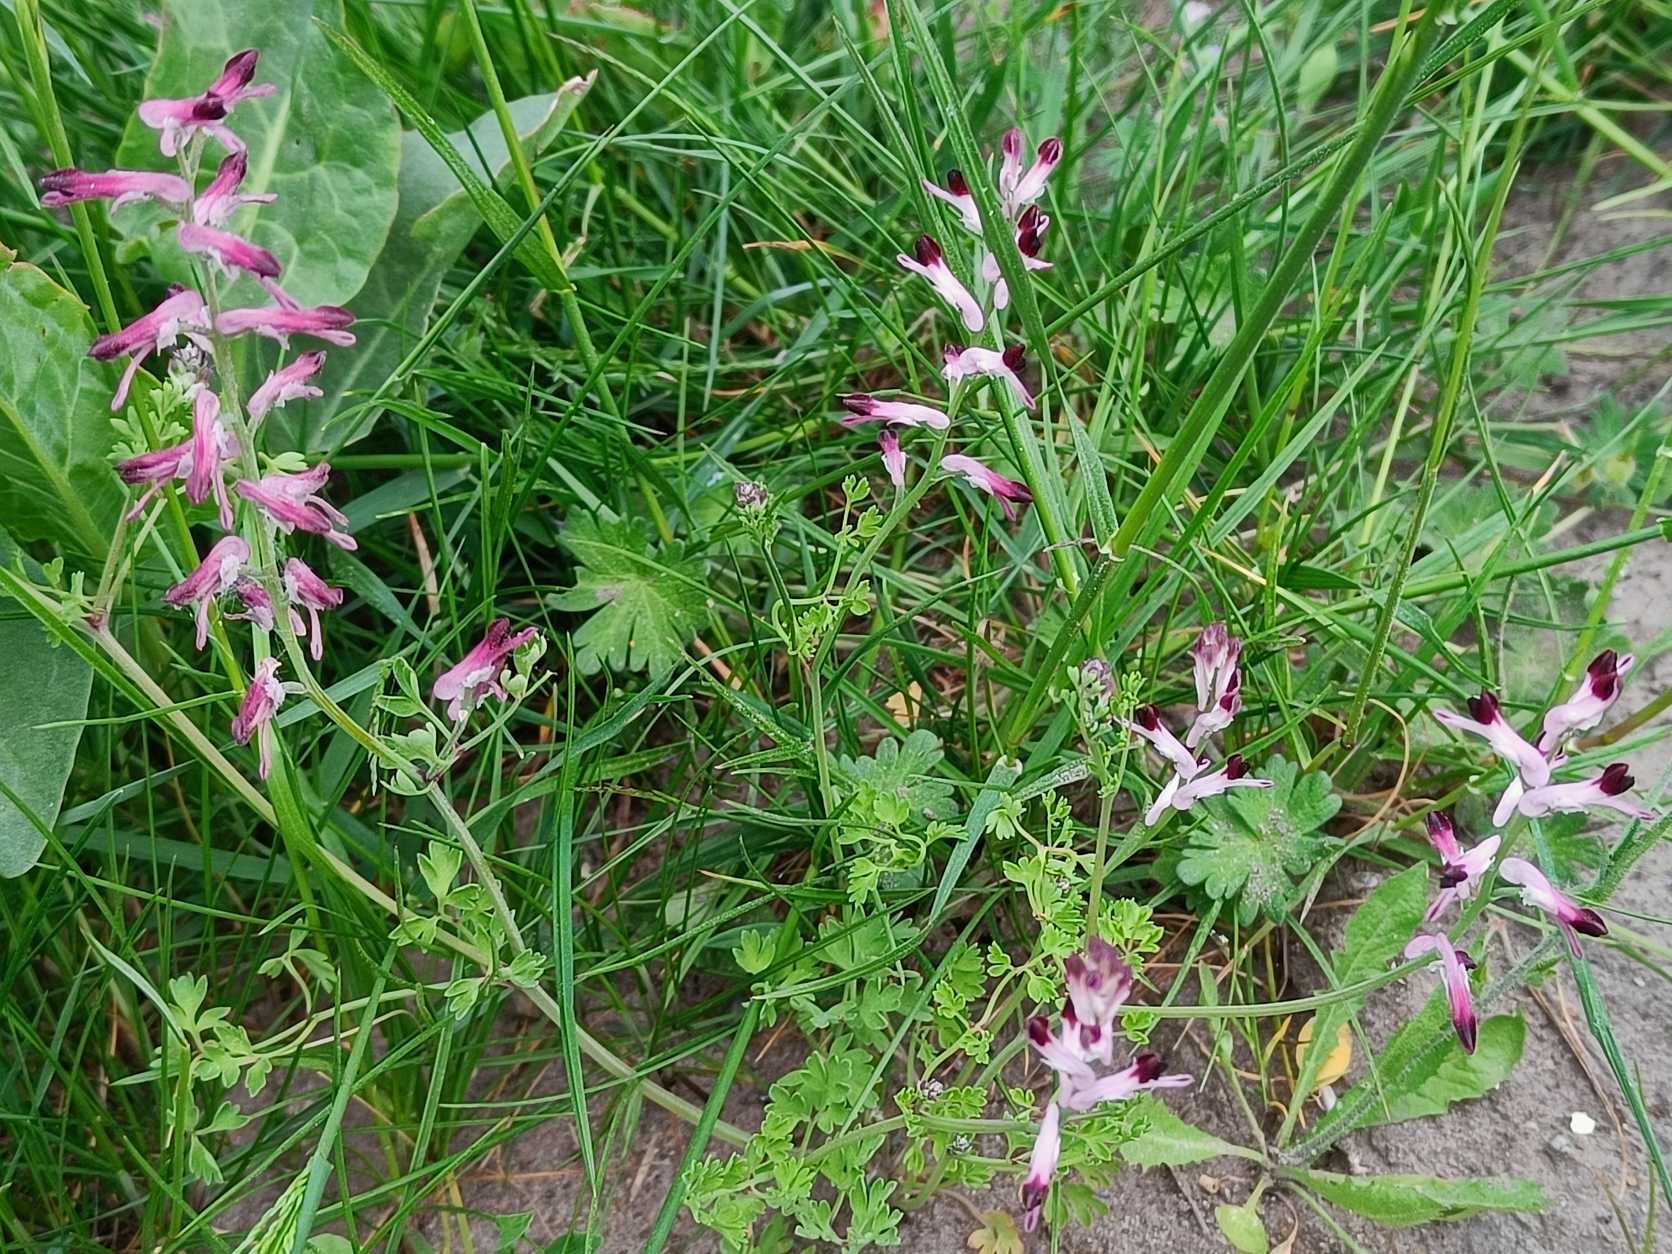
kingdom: Plantae
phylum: Tracheophyta
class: Magnoliopsida
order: Ranunculales
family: Papaveraceae
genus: Fumaria
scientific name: Fumaria officinalis
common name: Læge-jordrøg
